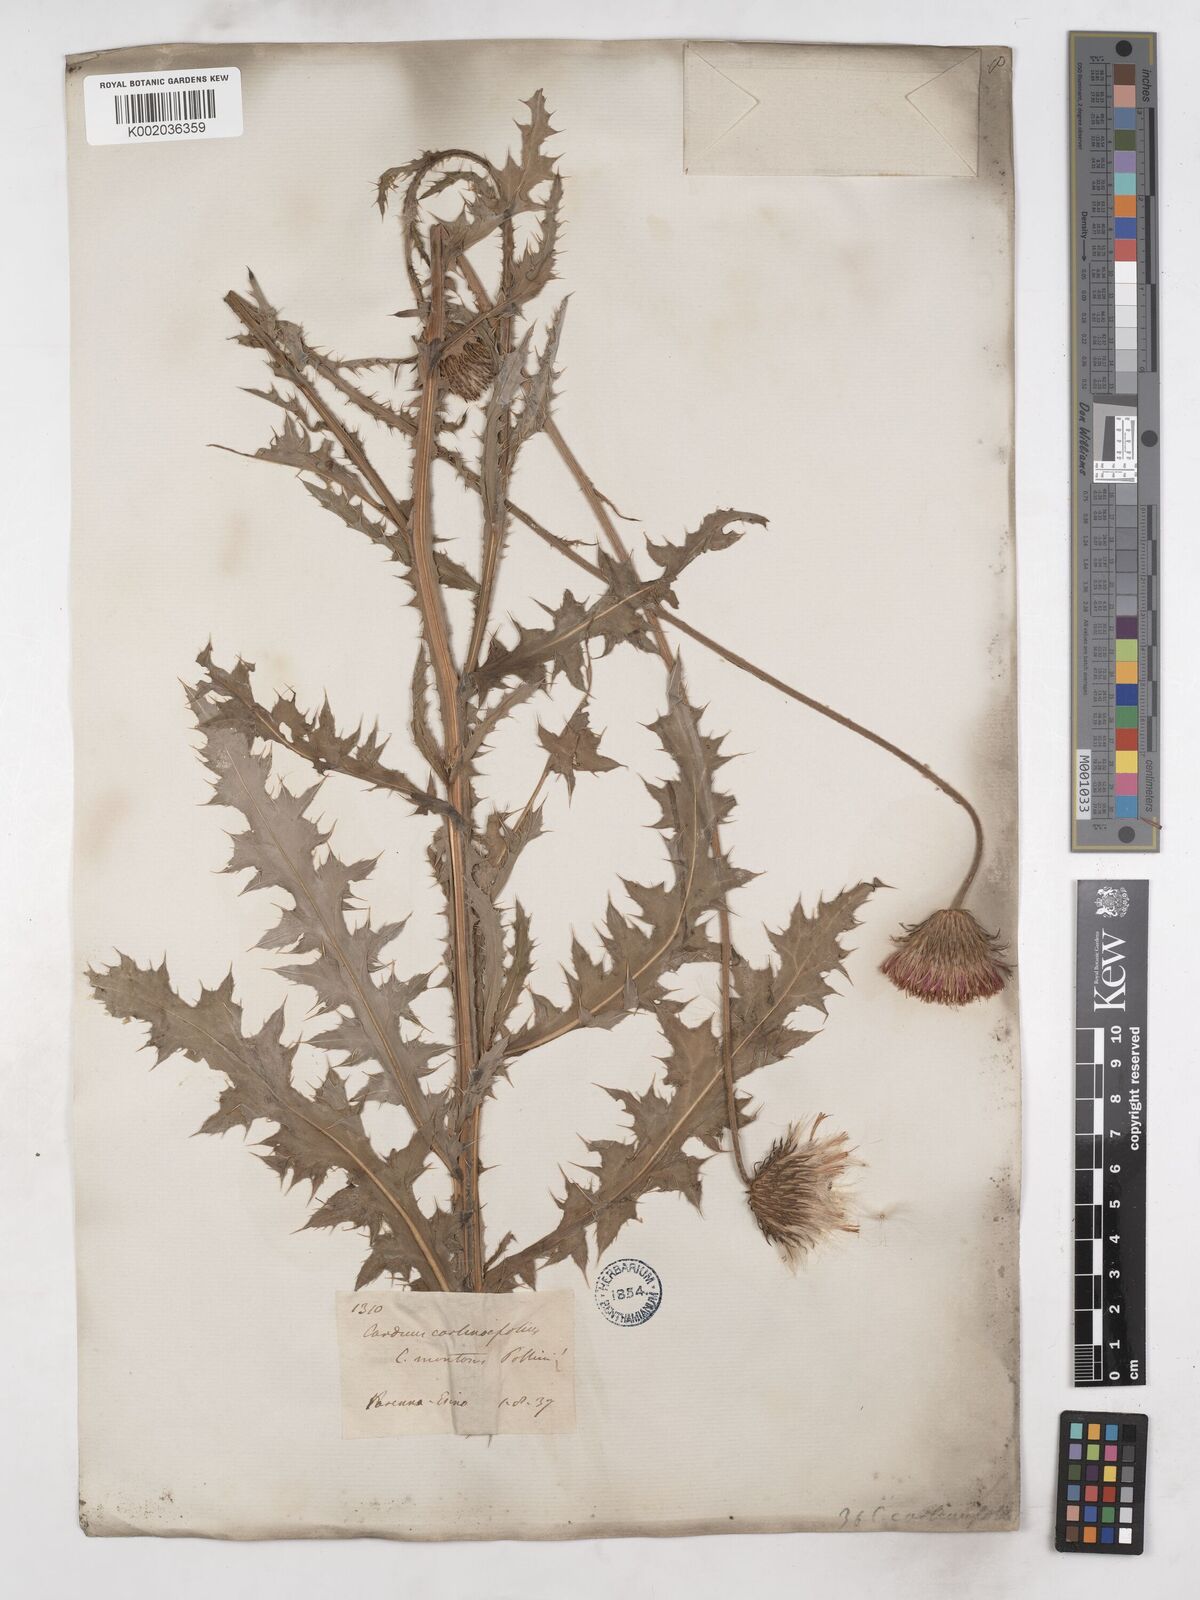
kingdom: Plantae
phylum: Tracheophyta
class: Magnoliopsida
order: Asterales
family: Asteraceae
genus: Carduus
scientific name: Carduus defloratus
